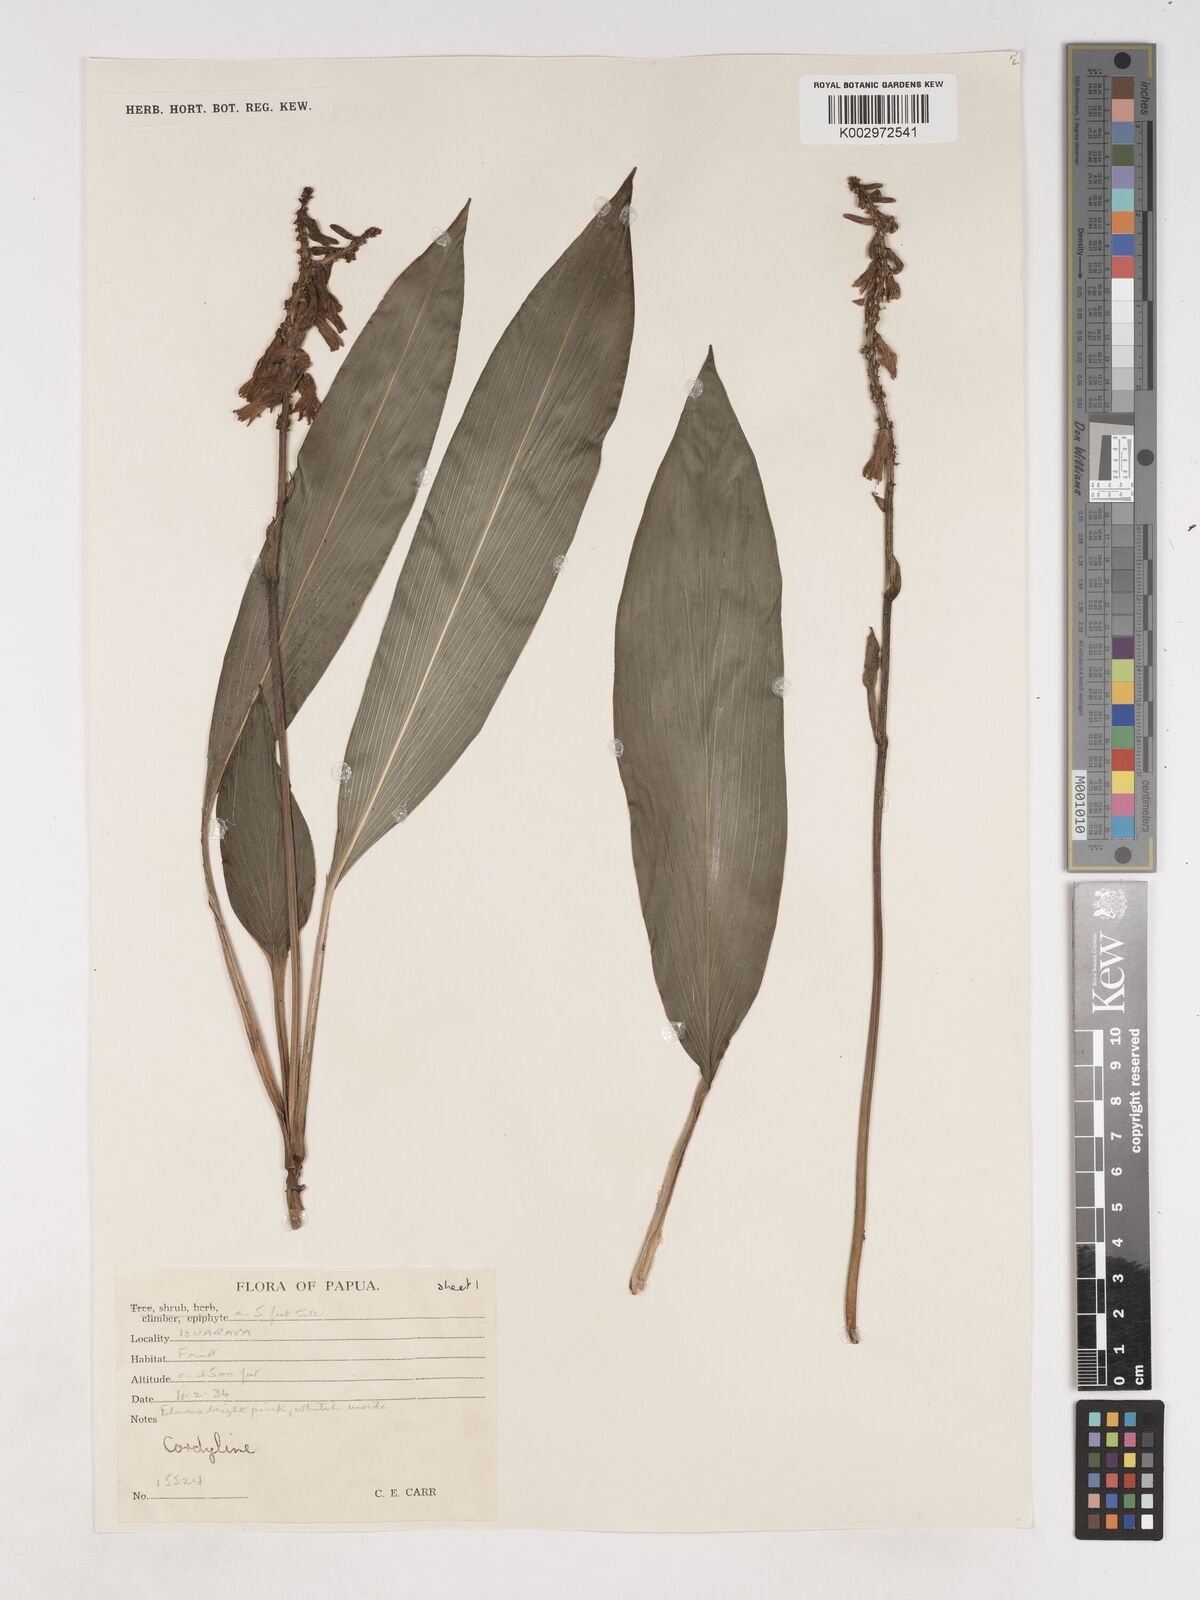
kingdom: Plantae
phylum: Tracheophyta
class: Liliopsida
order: Asparagales
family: Asparagaceae
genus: Cordyline
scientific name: Cordyline
